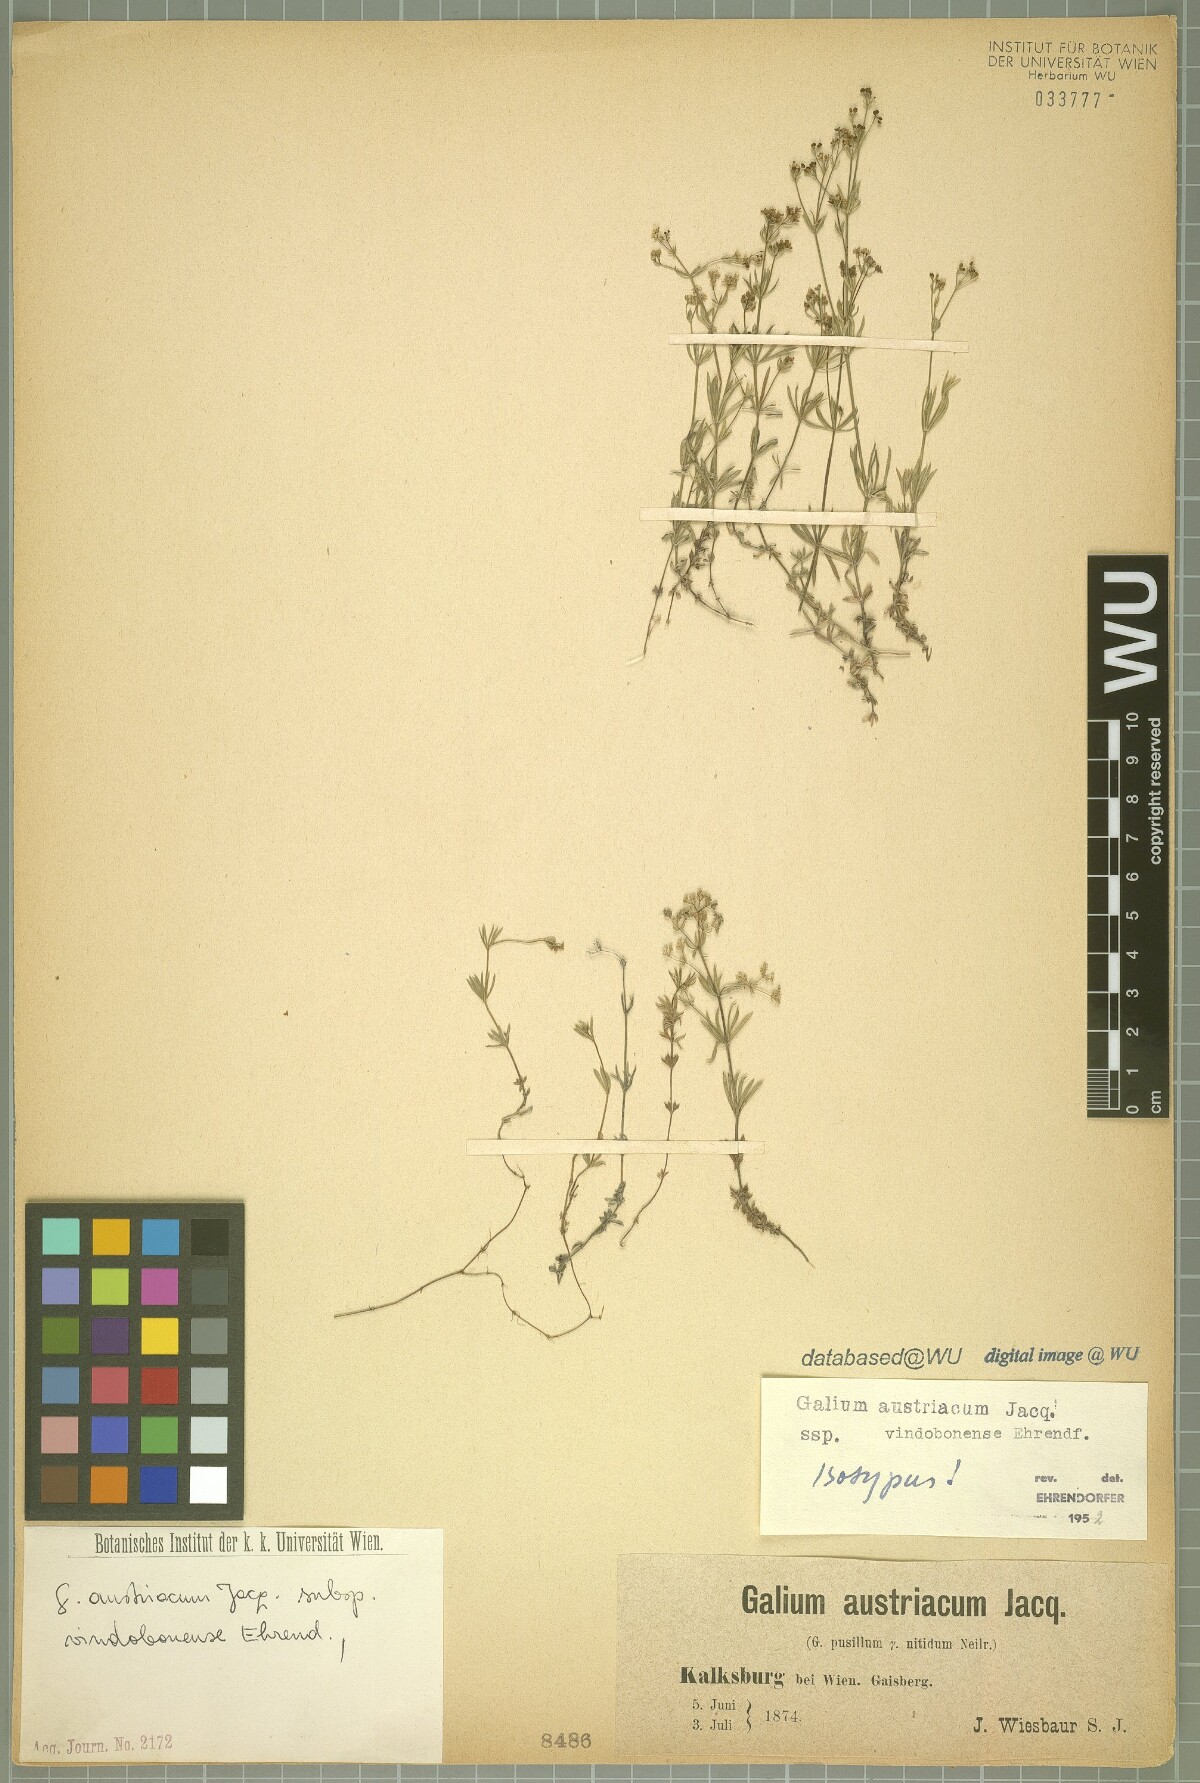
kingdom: Plantae
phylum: Tracheophyta
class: Magnoliopsida
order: Gentianales
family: Rubiaceae
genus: Galium
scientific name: Galium austriacum
